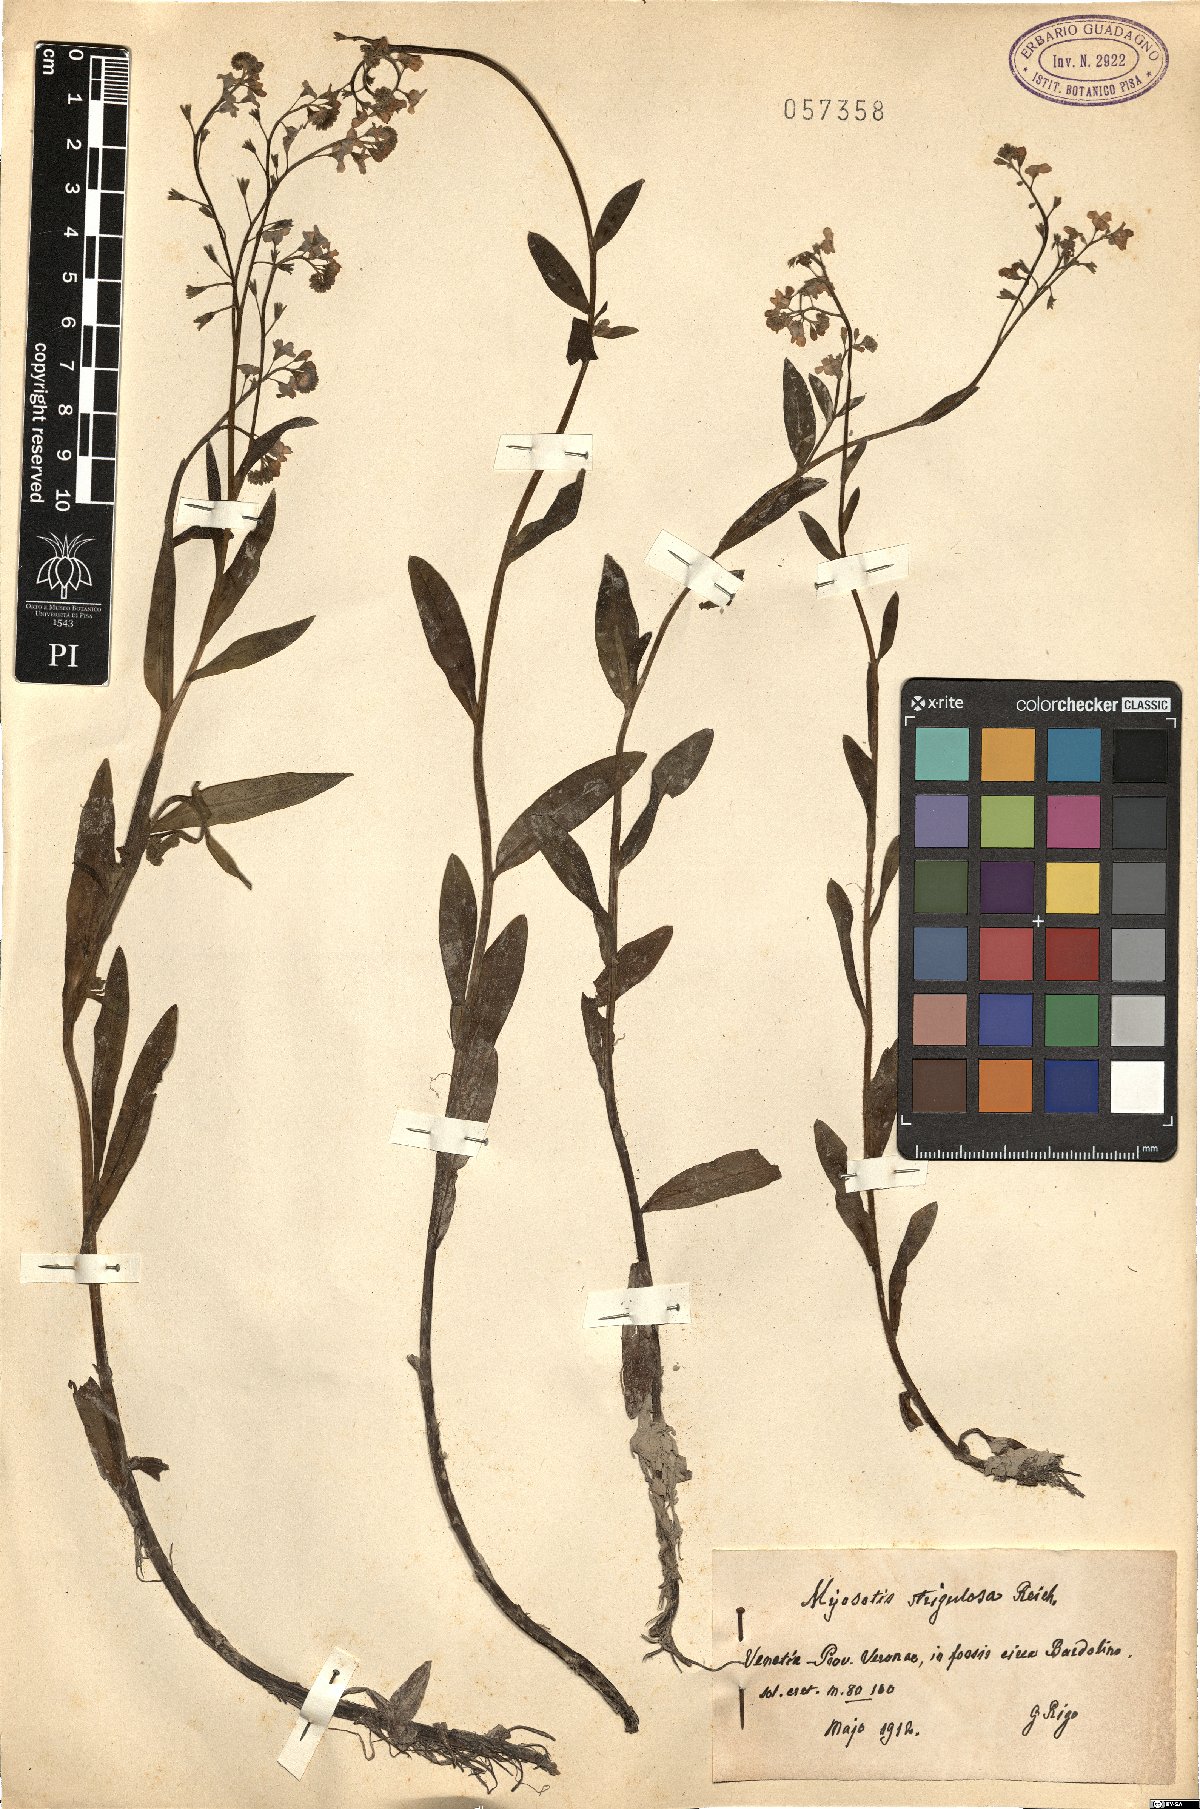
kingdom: Plantae
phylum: Tracheophyta
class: Magnoliopsida
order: Boraginales
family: Boraginaceae
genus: Myosotis
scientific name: Myosotis nemorosa
